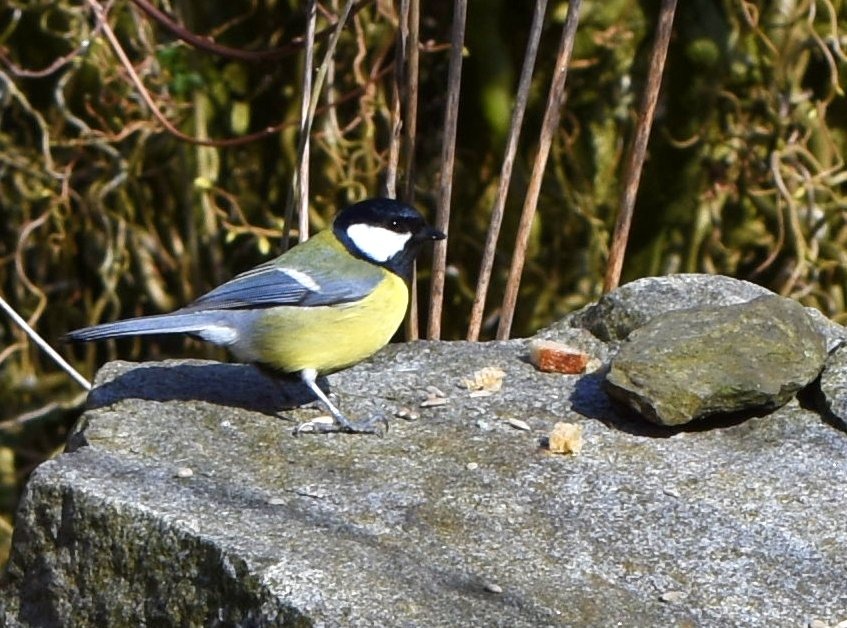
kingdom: Animalia
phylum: Chordata
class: Aves
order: Passeriformes
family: Paridae
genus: Parus
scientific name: Parus major
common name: Musvit
